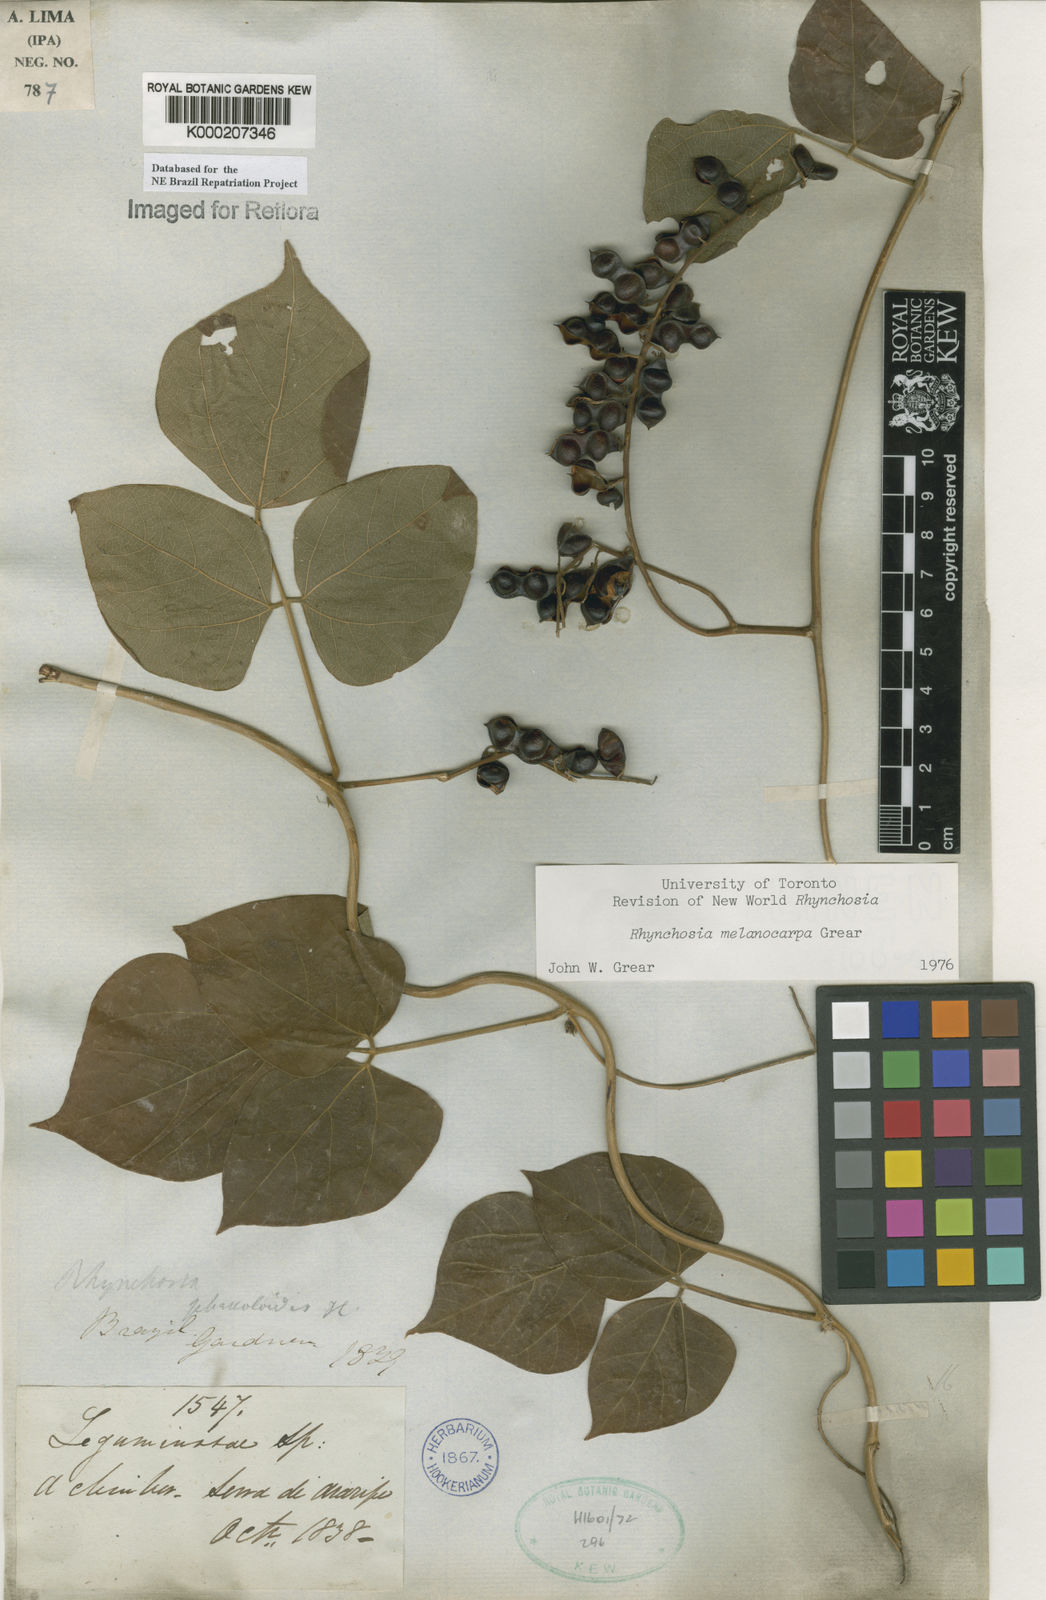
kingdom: Plantae
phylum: Tracheophyta
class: Magnoliopsida
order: Fabales
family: Fabaceae
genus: Rhynchosia
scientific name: Rhynchosia melanocarpa
